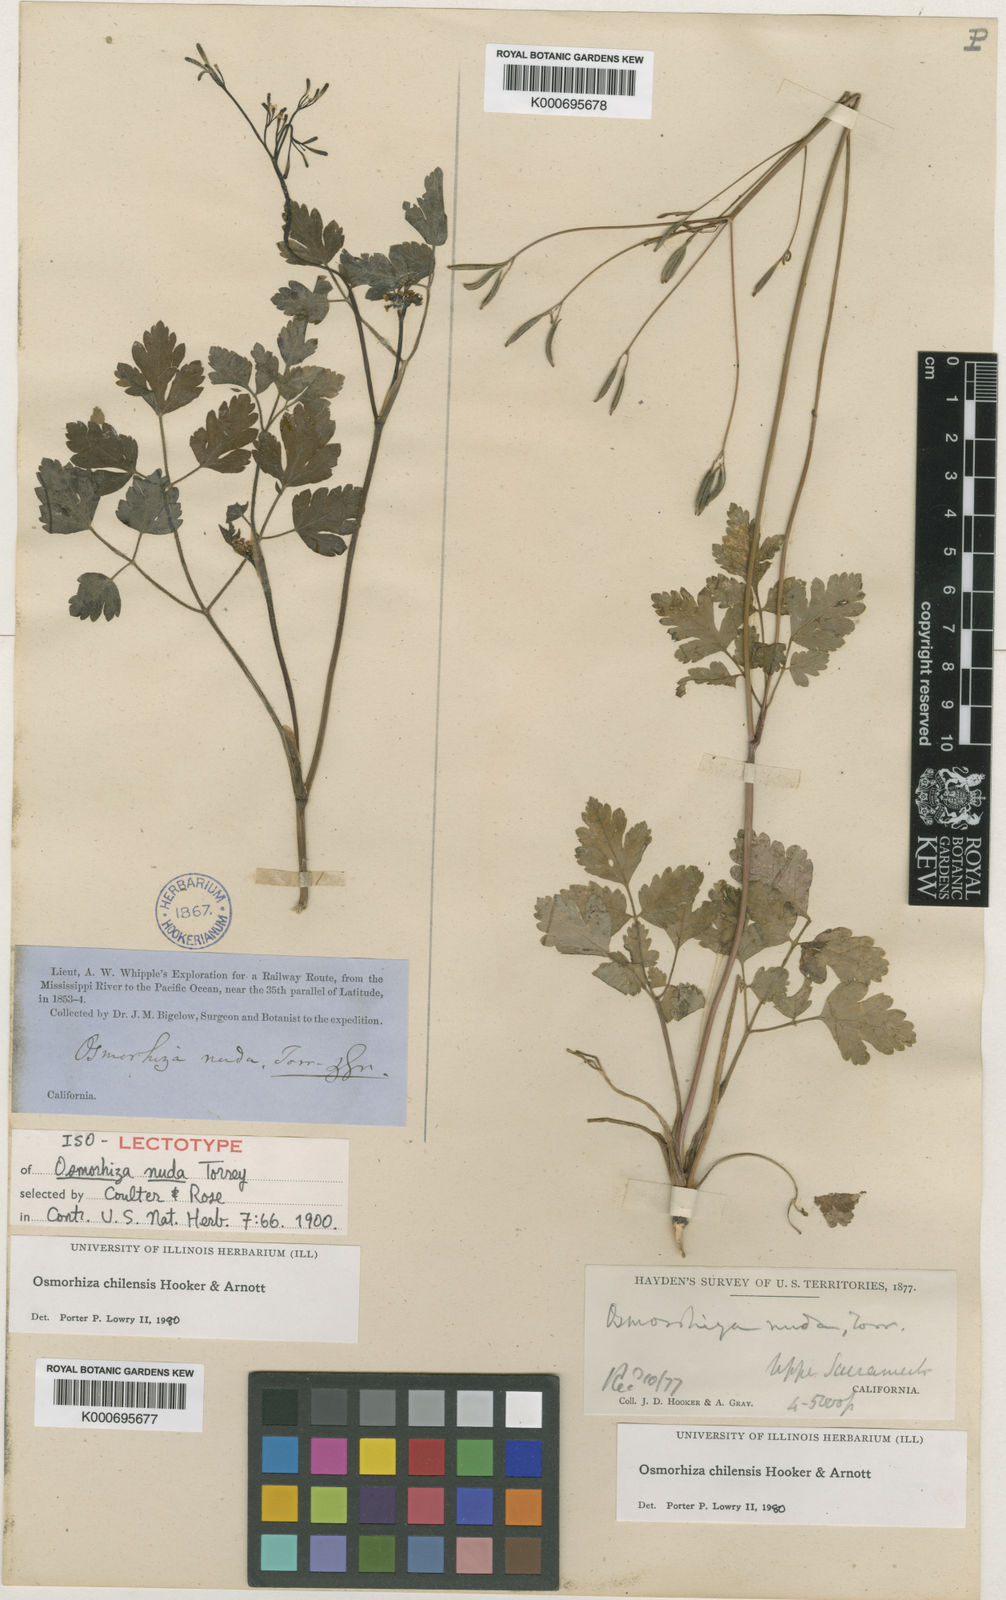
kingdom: Plantae
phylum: Tracheophyta
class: Magnoliopsida
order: Apiales
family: Apiaceae
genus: Osmorhiza
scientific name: Osmorhiza berteroi
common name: Mountain sweet cicely
